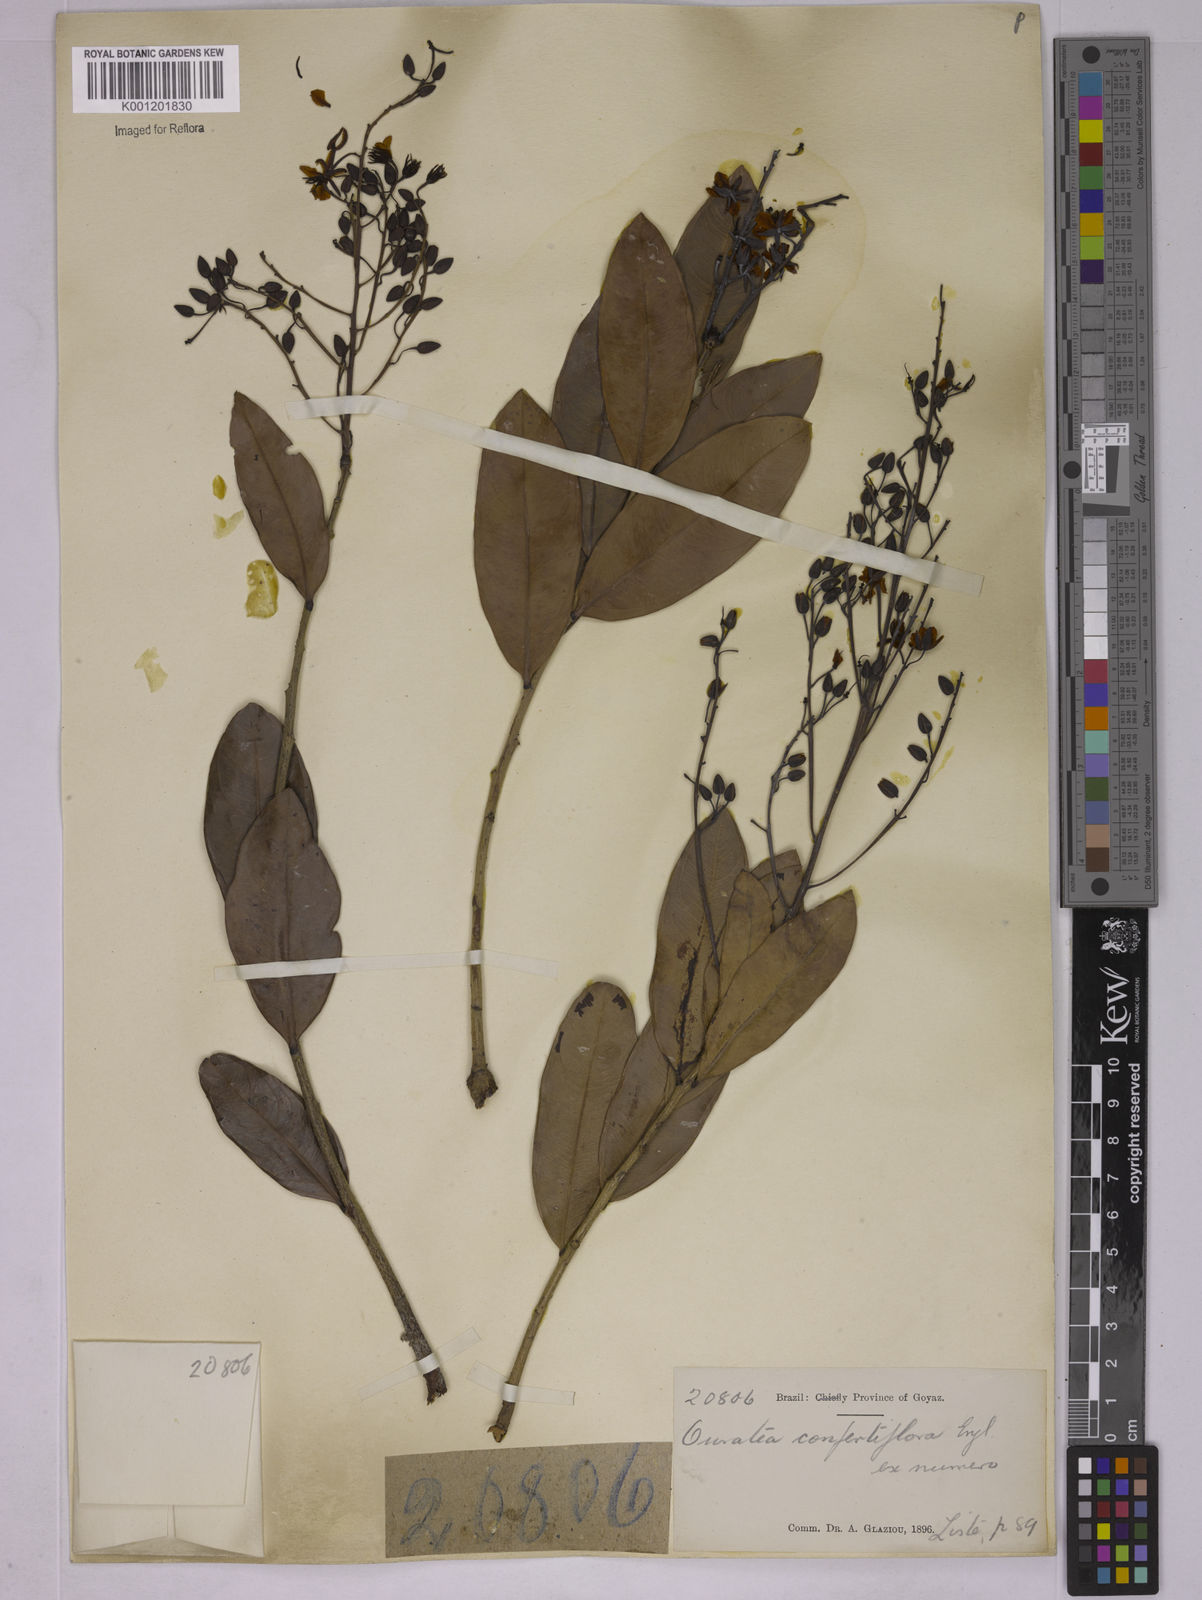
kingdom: Plantae
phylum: Tracheophyta
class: Magnoliopsida
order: Malpighiales
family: Ochnaceae
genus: Ouratea
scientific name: Ouratea confertiflora
